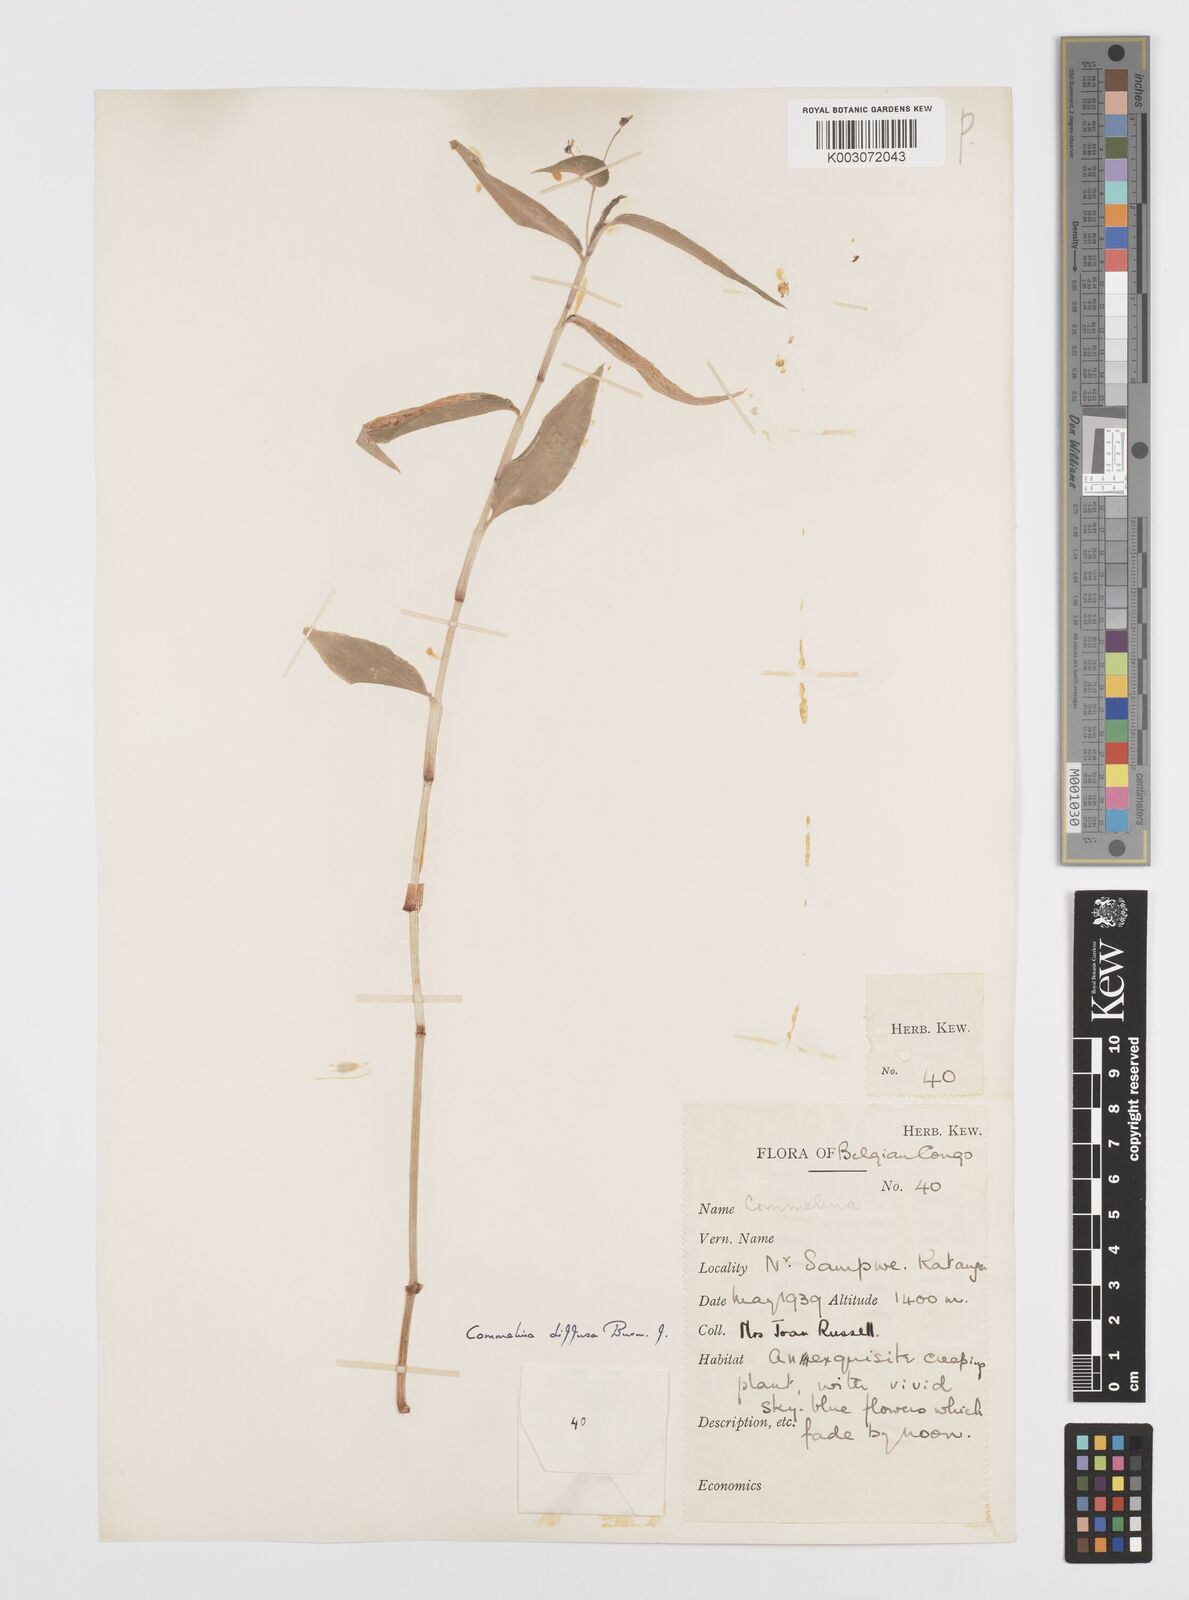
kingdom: Plantae
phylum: Tracheophyta
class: Liliopsida
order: Commelinales
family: Commelinaceae
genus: Commelina
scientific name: Commelina diffusa
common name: Climbing dayflower
